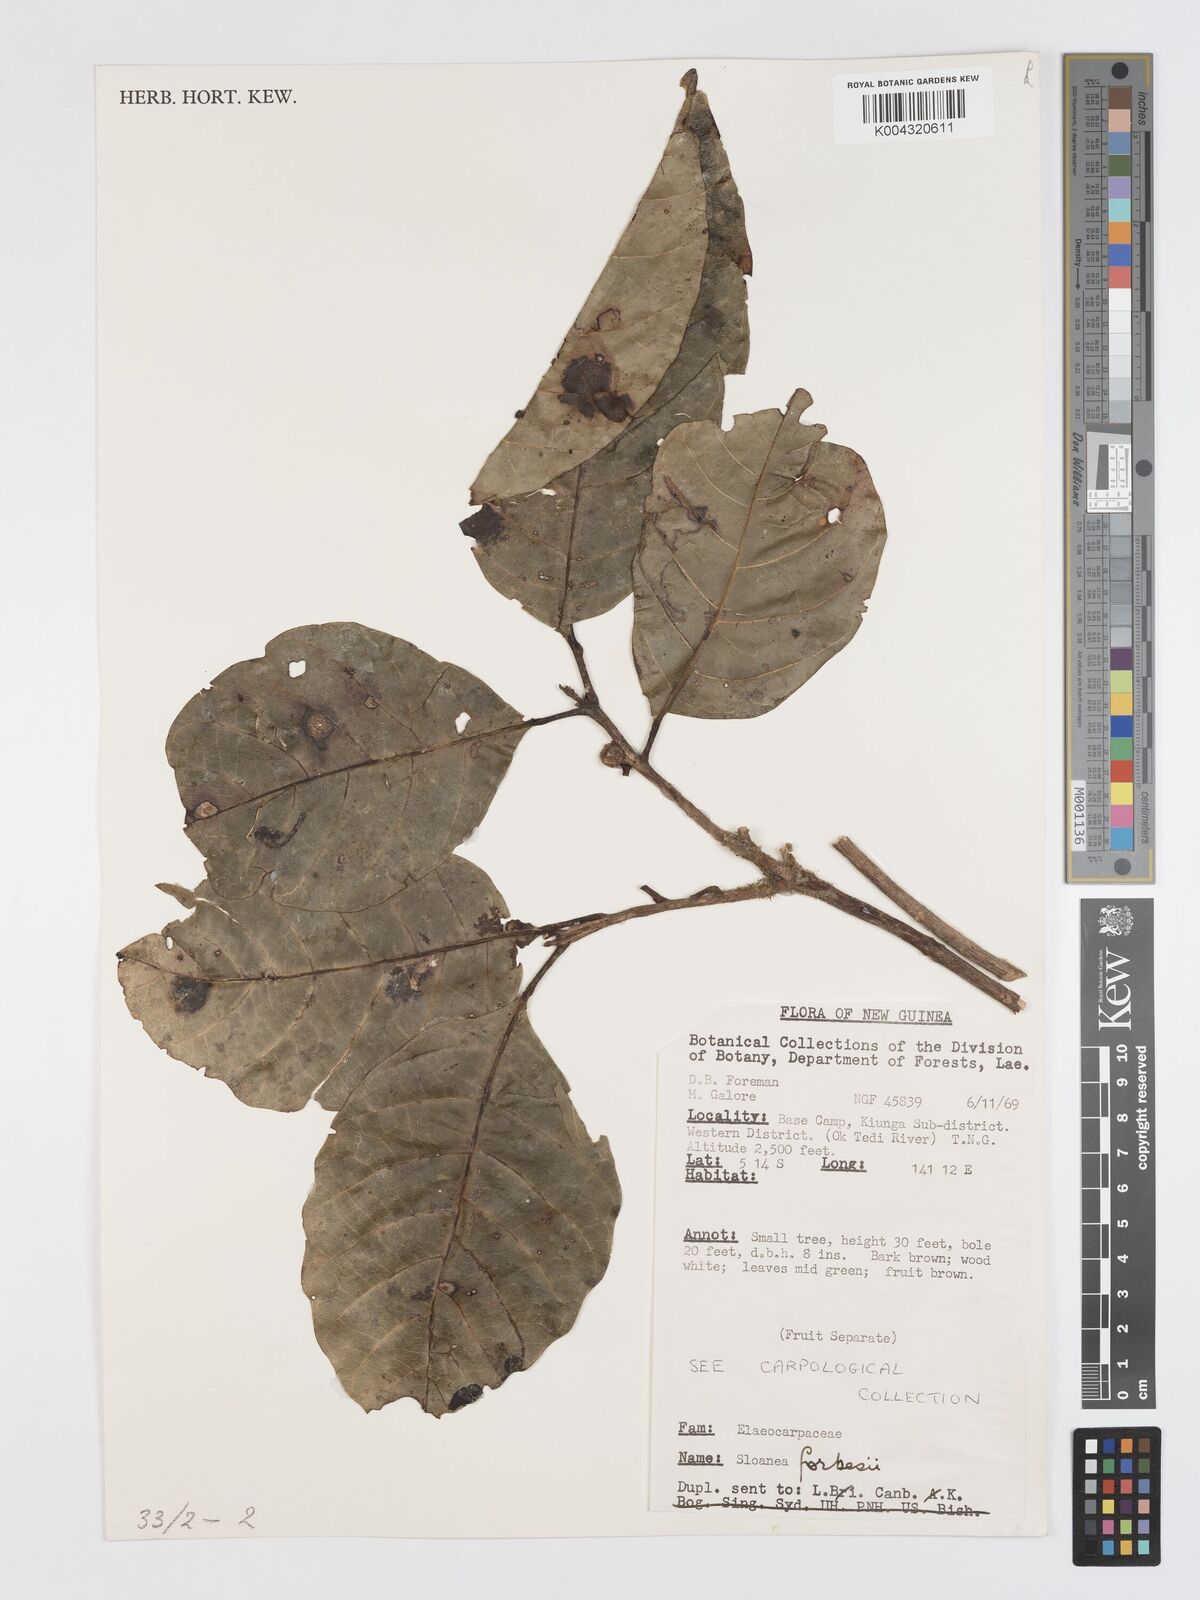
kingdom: Plantae
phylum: Tracheophyta
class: Magnoliopsida
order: Oxalidales
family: Elaeocarpaceae
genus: Sloanea
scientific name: Sloanea forbesii
